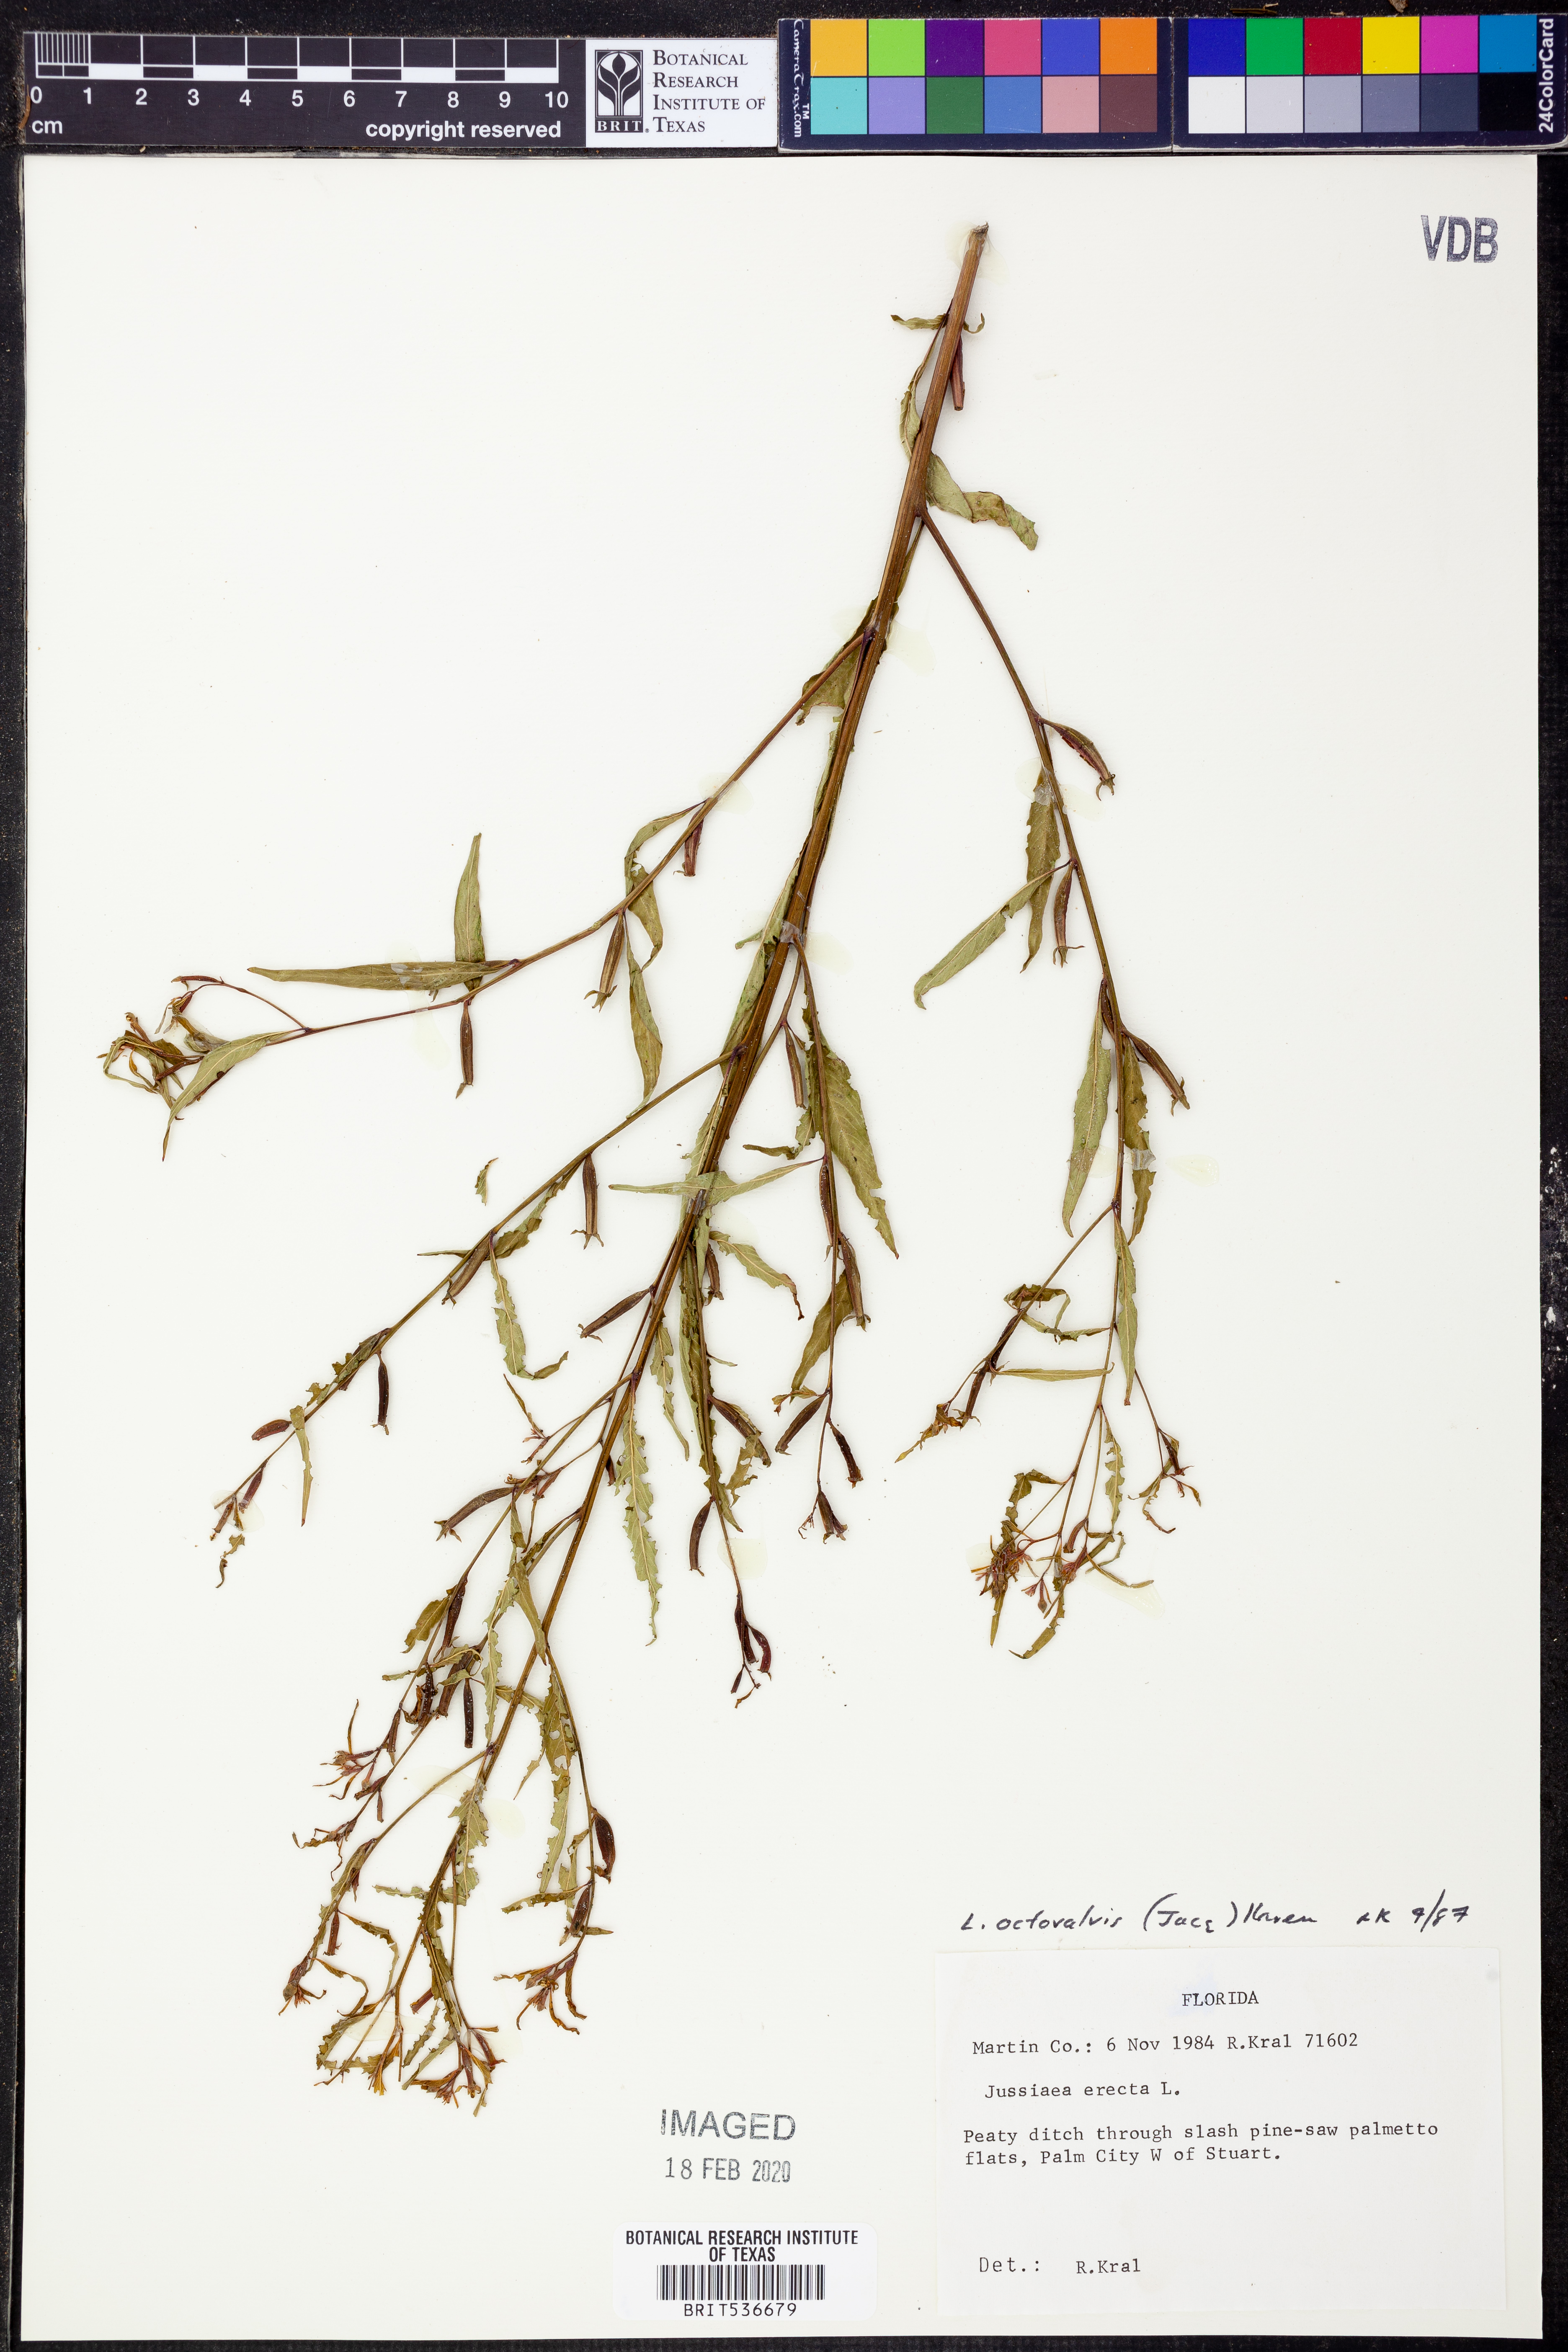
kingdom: Plantae
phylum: Tracheophyta
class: Magnoliopsida
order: Myrtales
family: Onagraceae
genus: Ludwigia
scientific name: Ludwigia octovalvis
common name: Water-primrose
